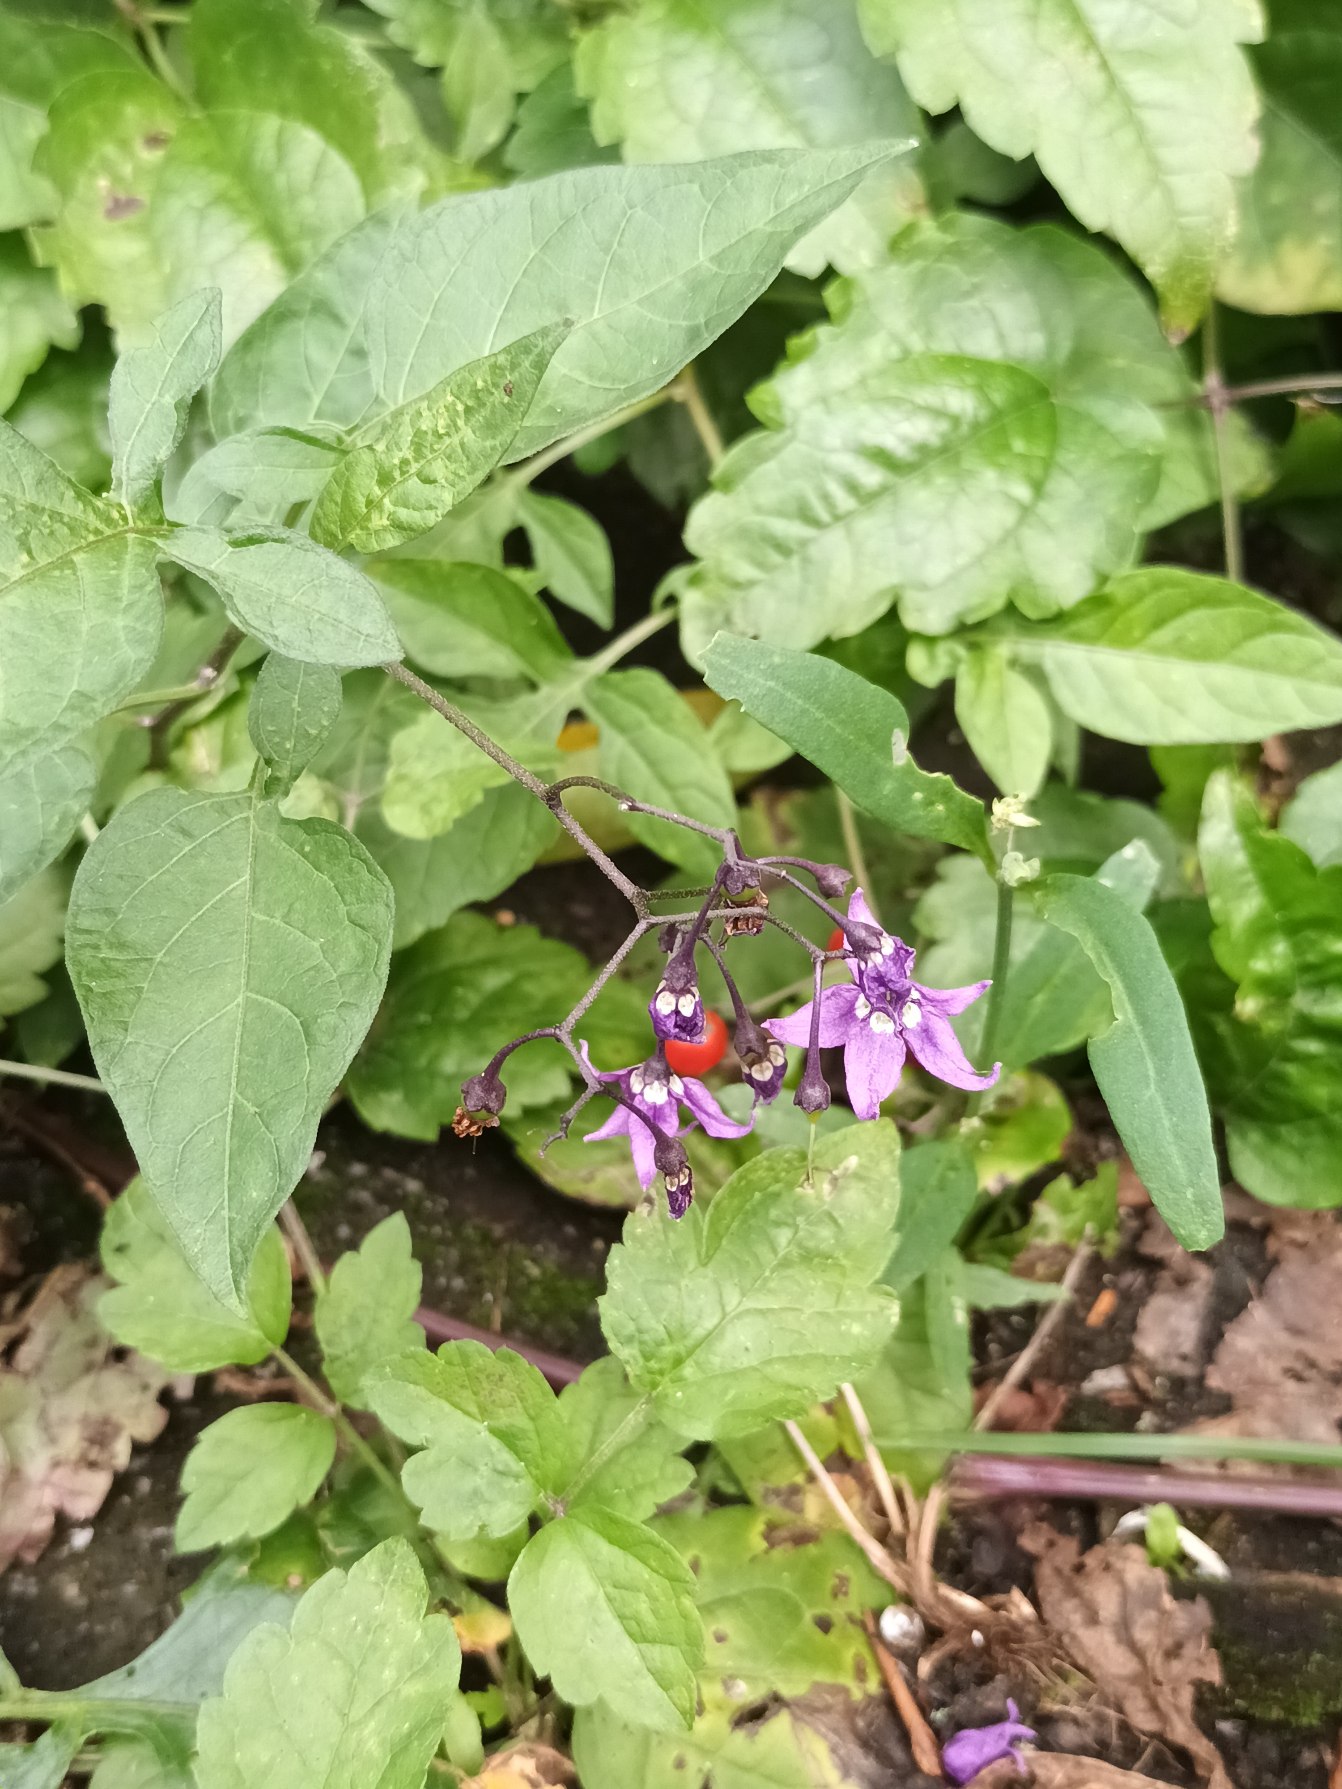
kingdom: Plantae
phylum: Tracheophyta
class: Magnoliopsida
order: Solanales
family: Solanaceae
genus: Solanum
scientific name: Solanum dulcamara
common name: Bittersød natskygge
